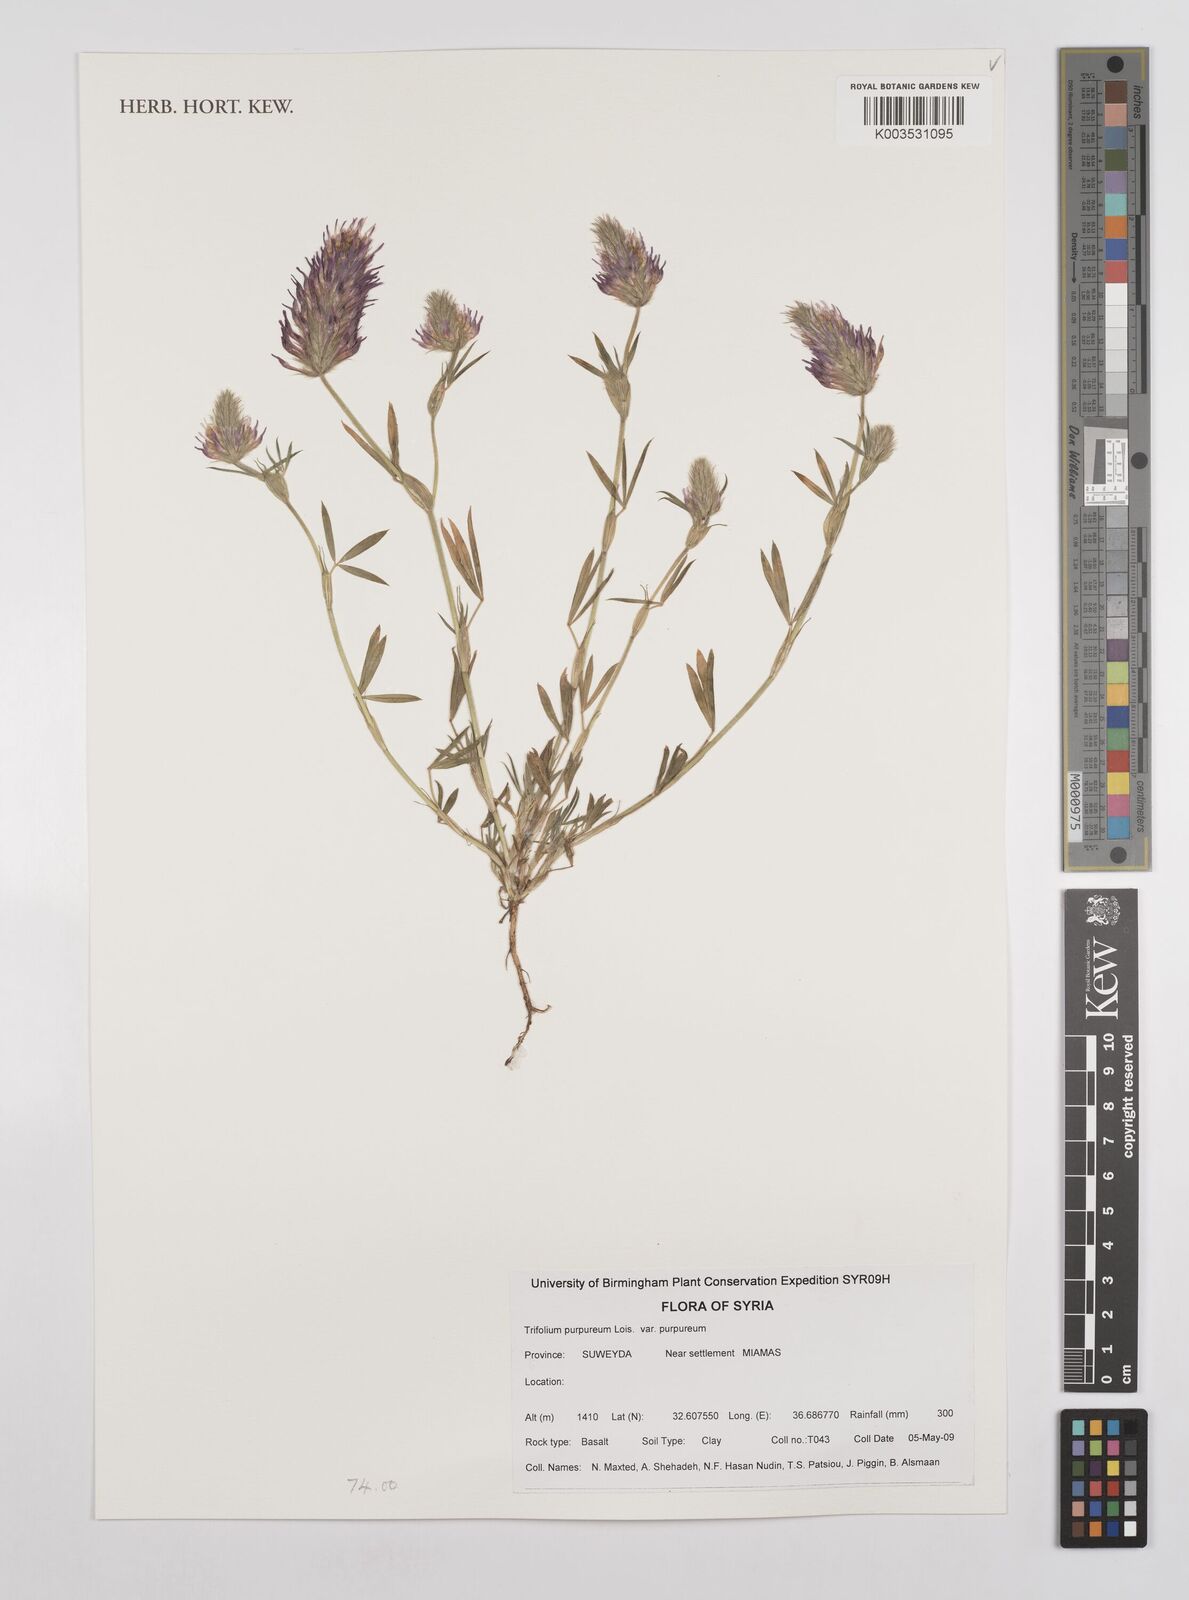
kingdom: Plantae
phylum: Tracheophyta
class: Magnoliopsida
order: Fabales
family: Fabaceae
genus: Trifolium
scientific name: Trifolium purpureum
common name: Purple clover
